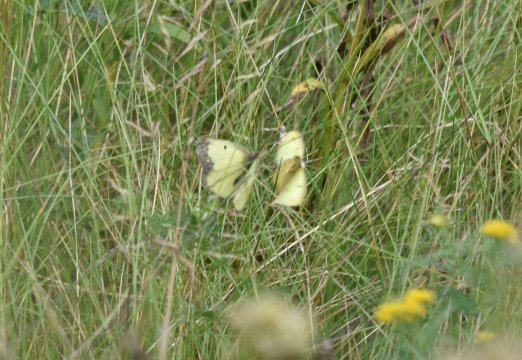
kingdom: Animalia
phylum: Arthropoda
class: Insecta
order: Lepidoptera
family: Pieridae
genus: Colias
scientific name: Colias philodice
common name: Clouded Sulphur
